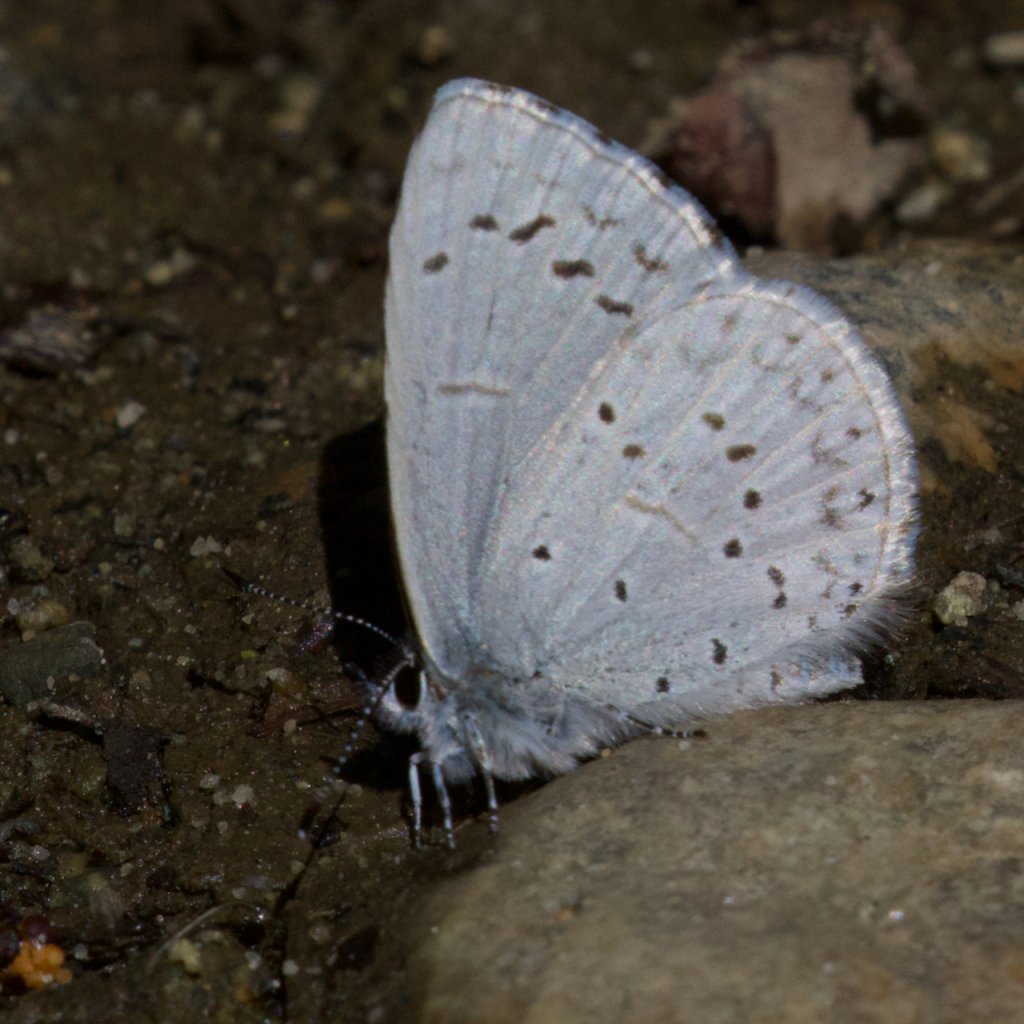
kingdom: Animalia
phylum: Arthropoda
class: Insecta
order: Lepidoptera
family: Lycaenidae
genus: Celastrina
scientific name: Celastrina ladon
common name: Echo Azure
